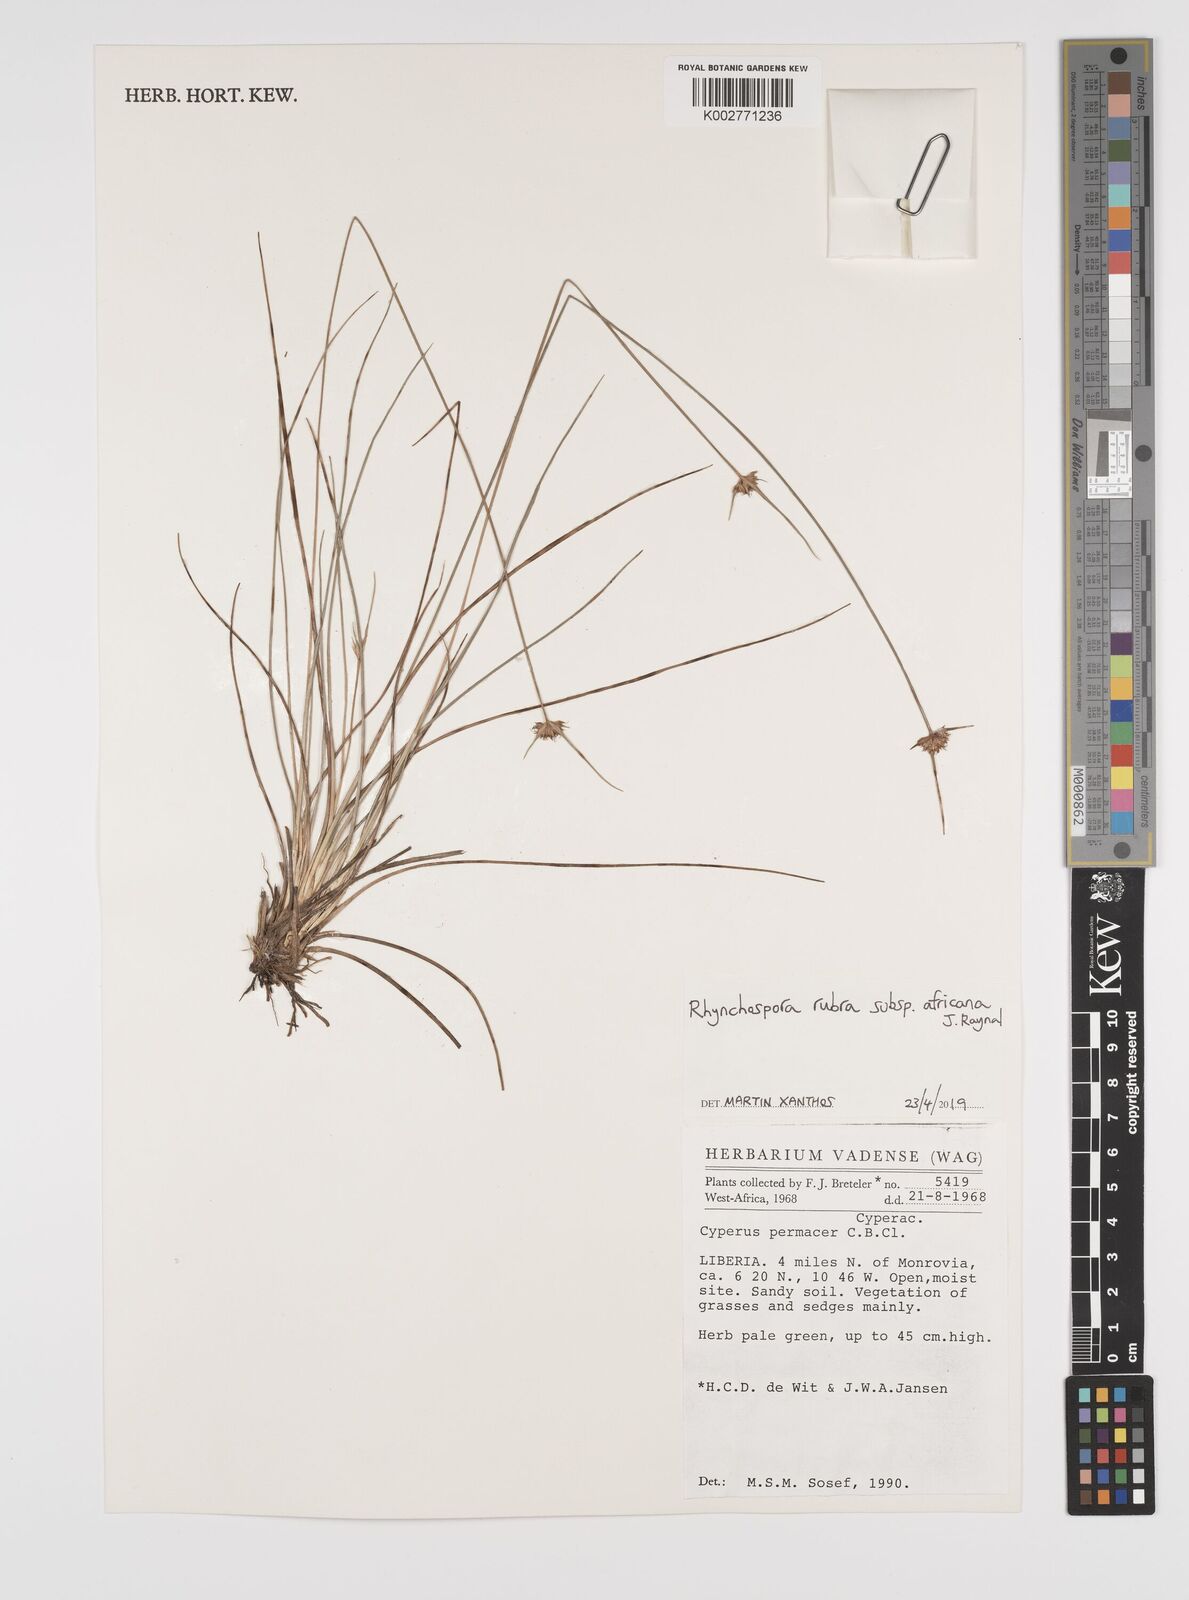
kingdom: Plantae
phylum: Tracheophyta
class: Liliopsida
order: Poales
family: Cyperaceae
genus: Rhynchospora
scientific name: Rhynchospora rubra
